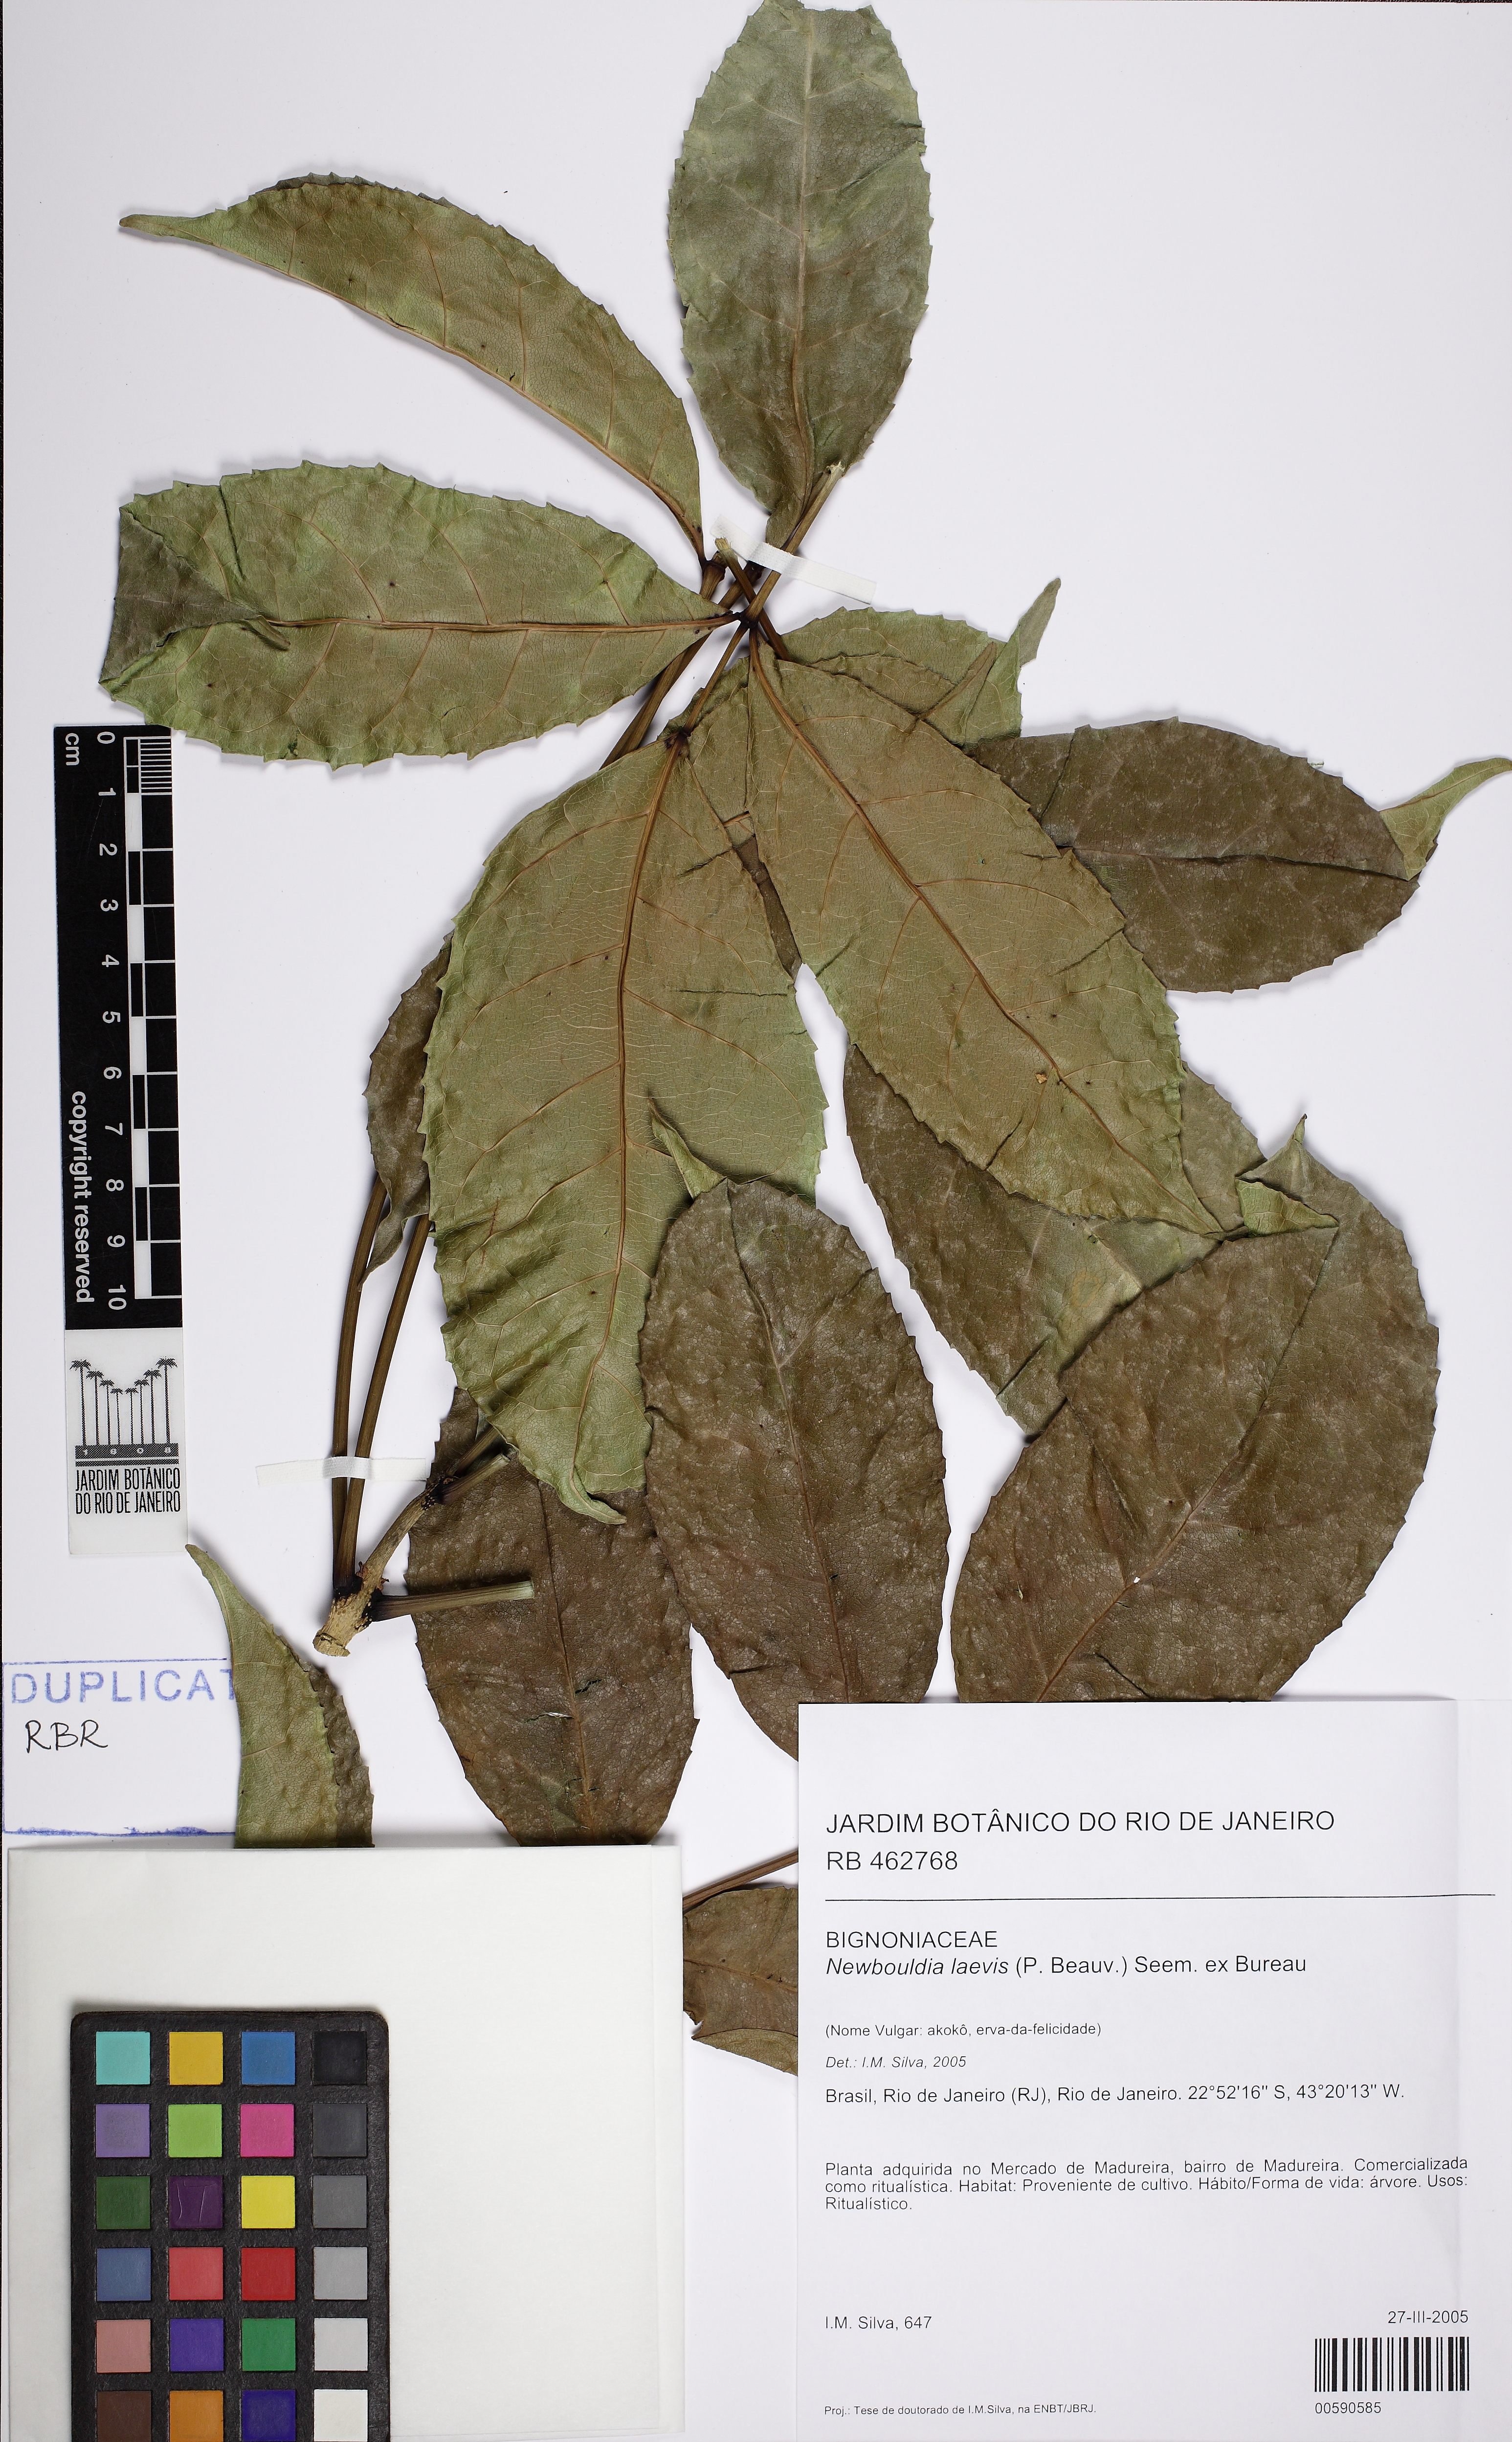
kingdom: Plantae
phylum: Tracheophyta
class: Magnoliopsida
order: Lamiales
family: Bignoniaceae
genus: Newbouldia
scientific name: Newbouldia laevis
